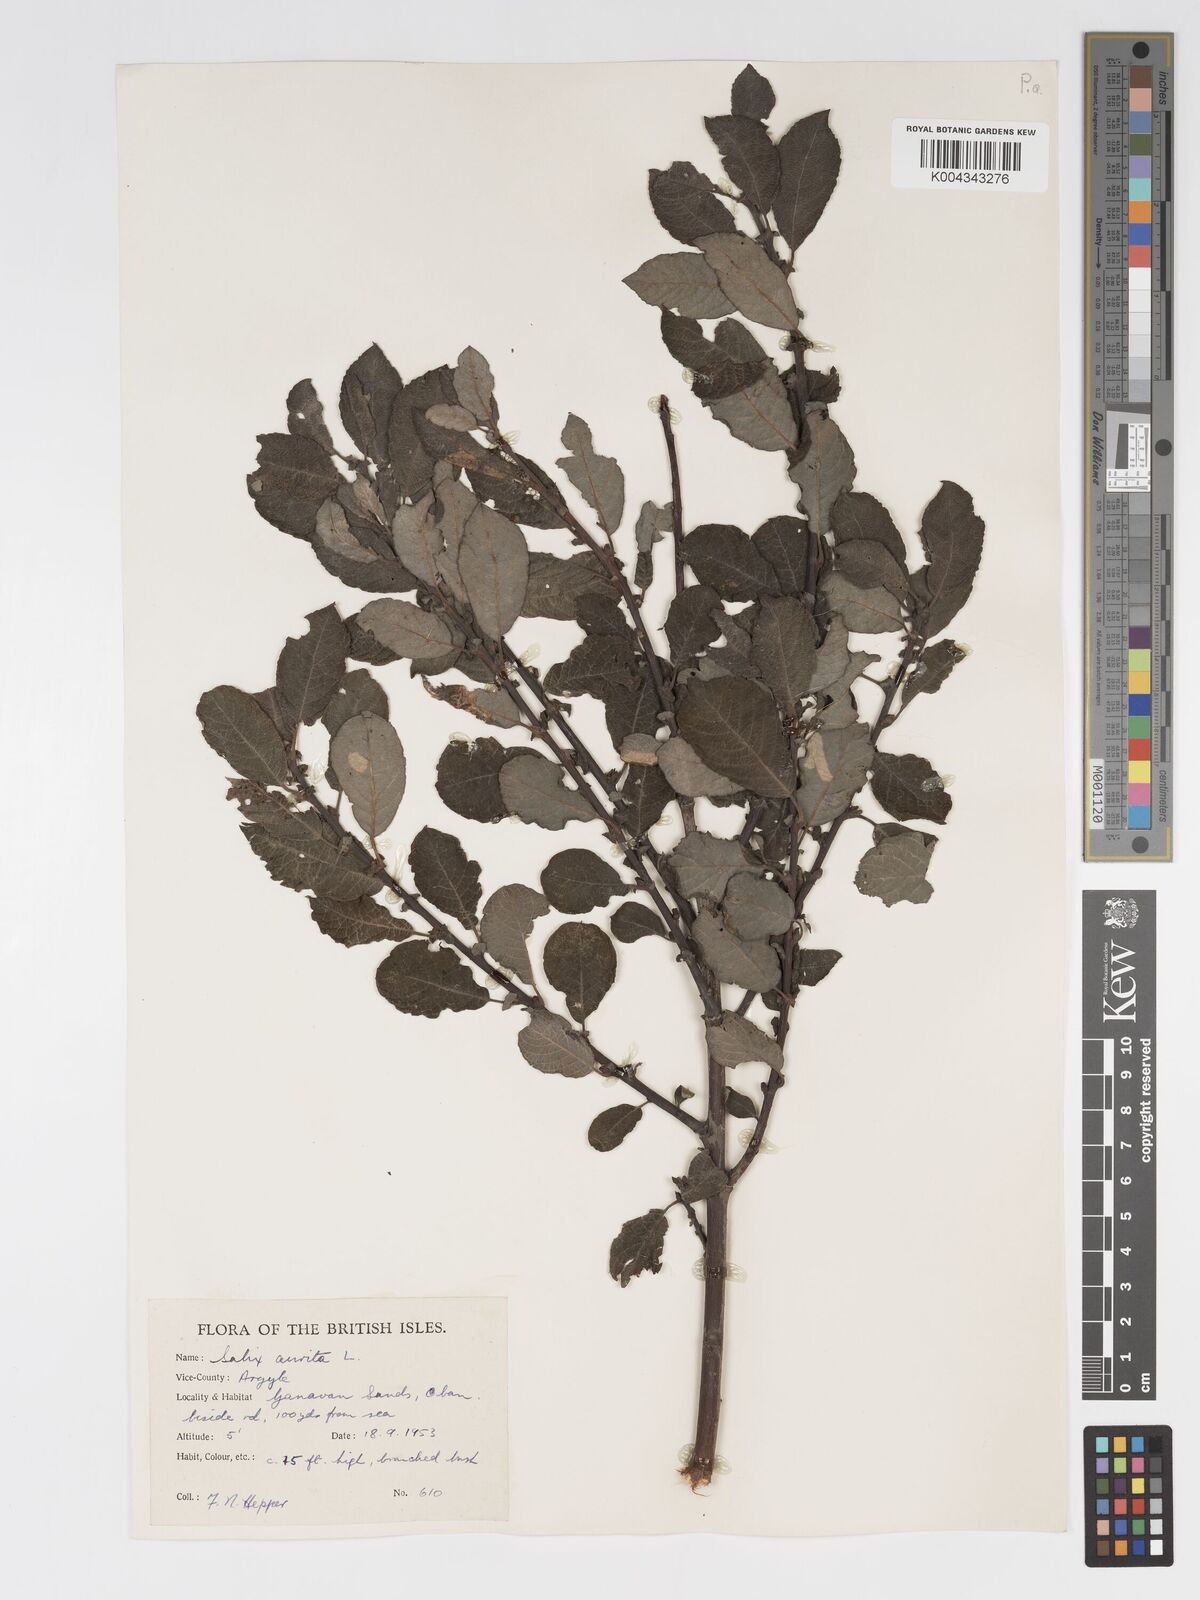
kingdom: Plantae
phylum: Tracheophyta
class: Magnoliopsida
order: Malpighiales
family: Salicaceae
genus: Salix
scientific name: Salix aurita
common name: Eared willow
